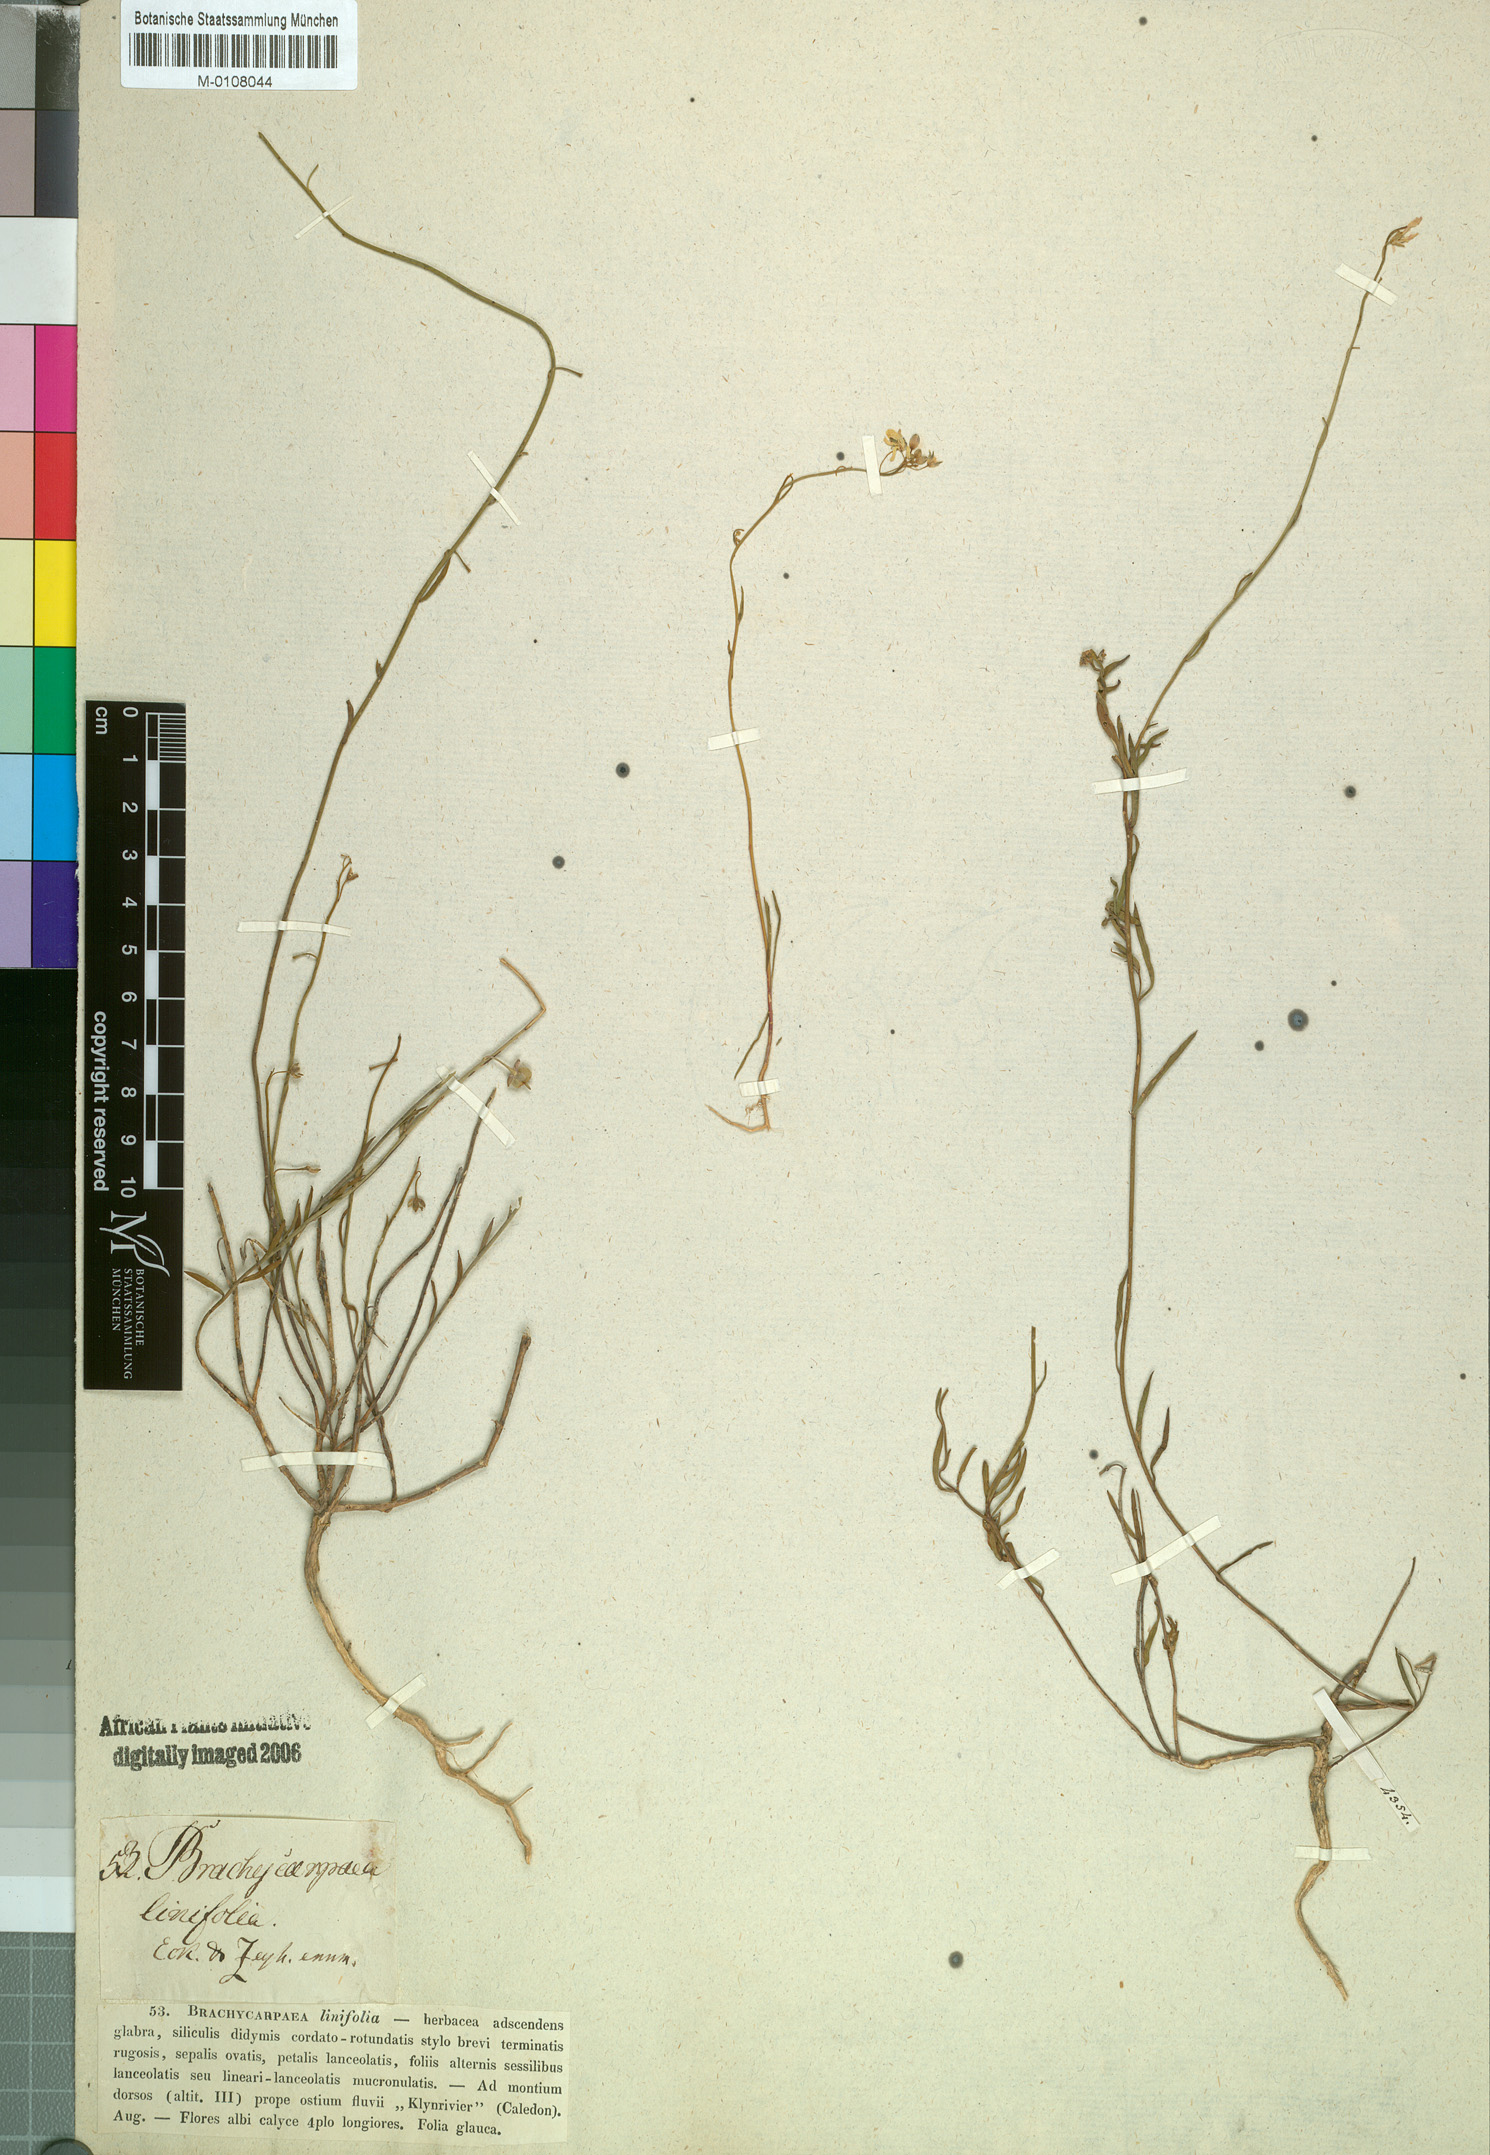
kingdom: Plantae
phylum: Tracheophyta
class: Magnoliopsida
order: Brassicales
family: Brassicaceae
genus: Heliophila
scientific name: Heliophila juncea
